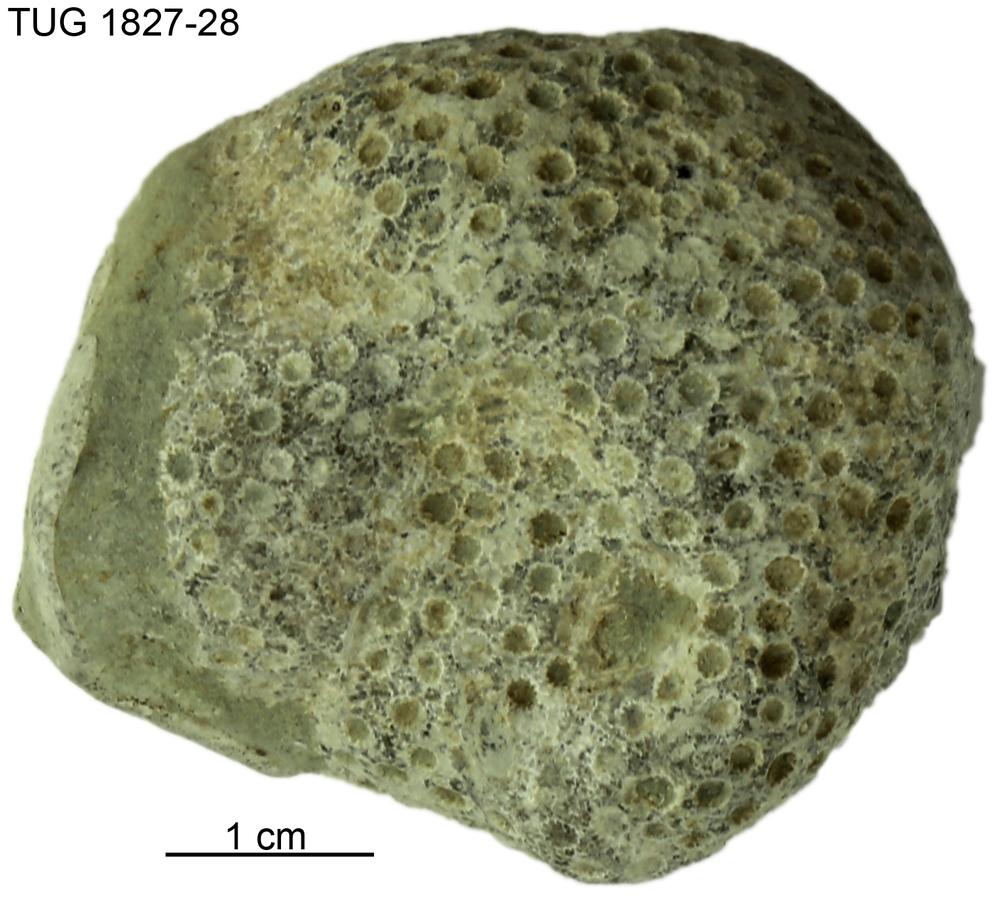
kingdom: Animalia
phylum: Xenacoelomorpha
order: Acoela
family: Proporidae
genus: Propora
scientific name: Propora
